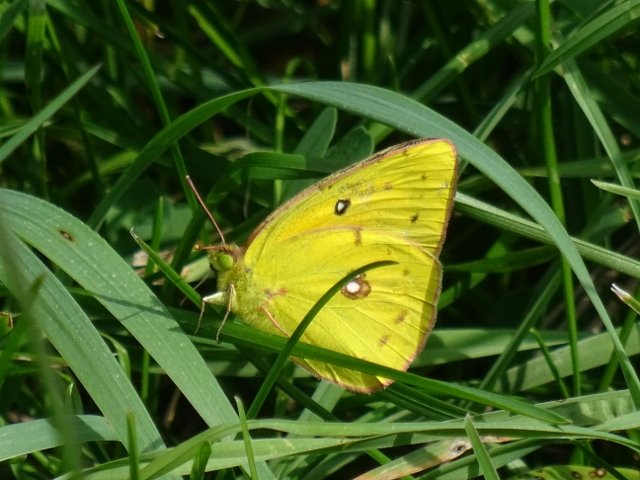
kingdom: Animalia
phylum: Arthropoda
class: Insecta
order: Lepidoptera
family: Pieridae
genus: Colias
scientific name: Colias philodice
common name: Clouded Sulphur
